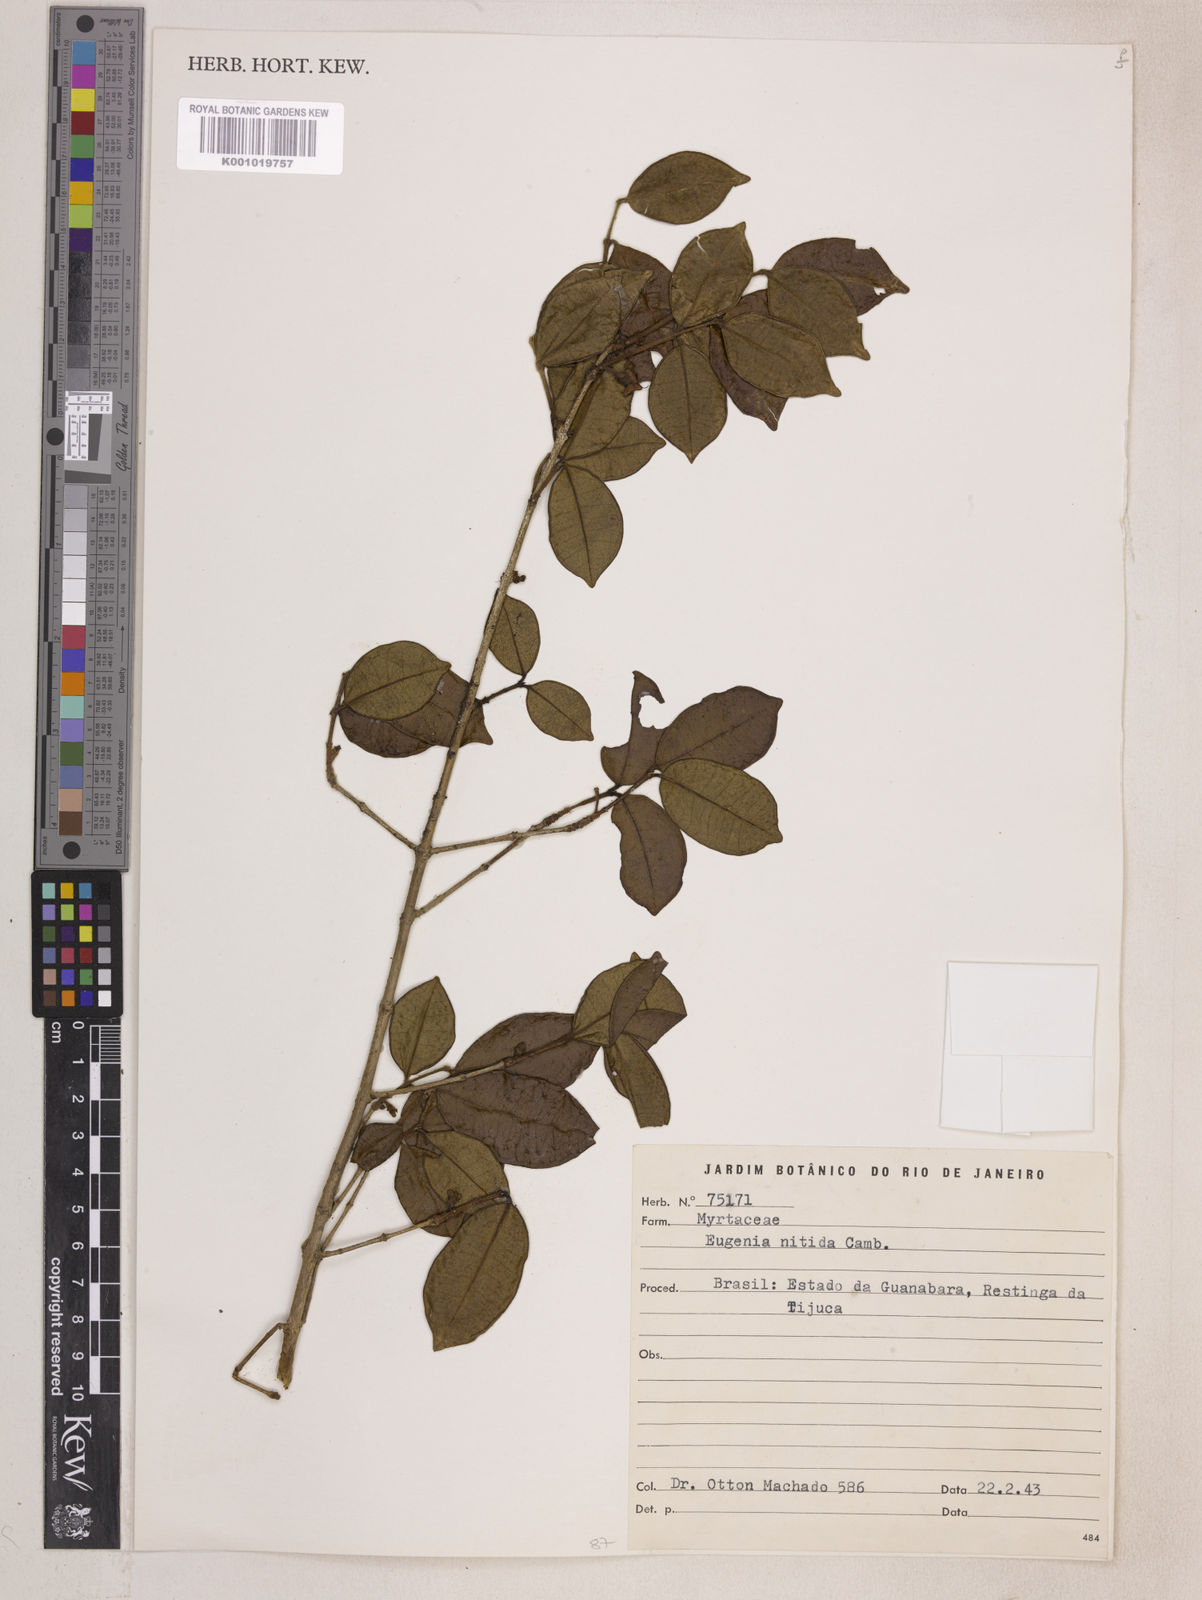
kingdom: Plantae
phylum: Tracheophyta
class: Magnoliopsida
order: Myrtales
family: Myrtaceae
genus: Eugenia
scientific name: Eugenia selloi
